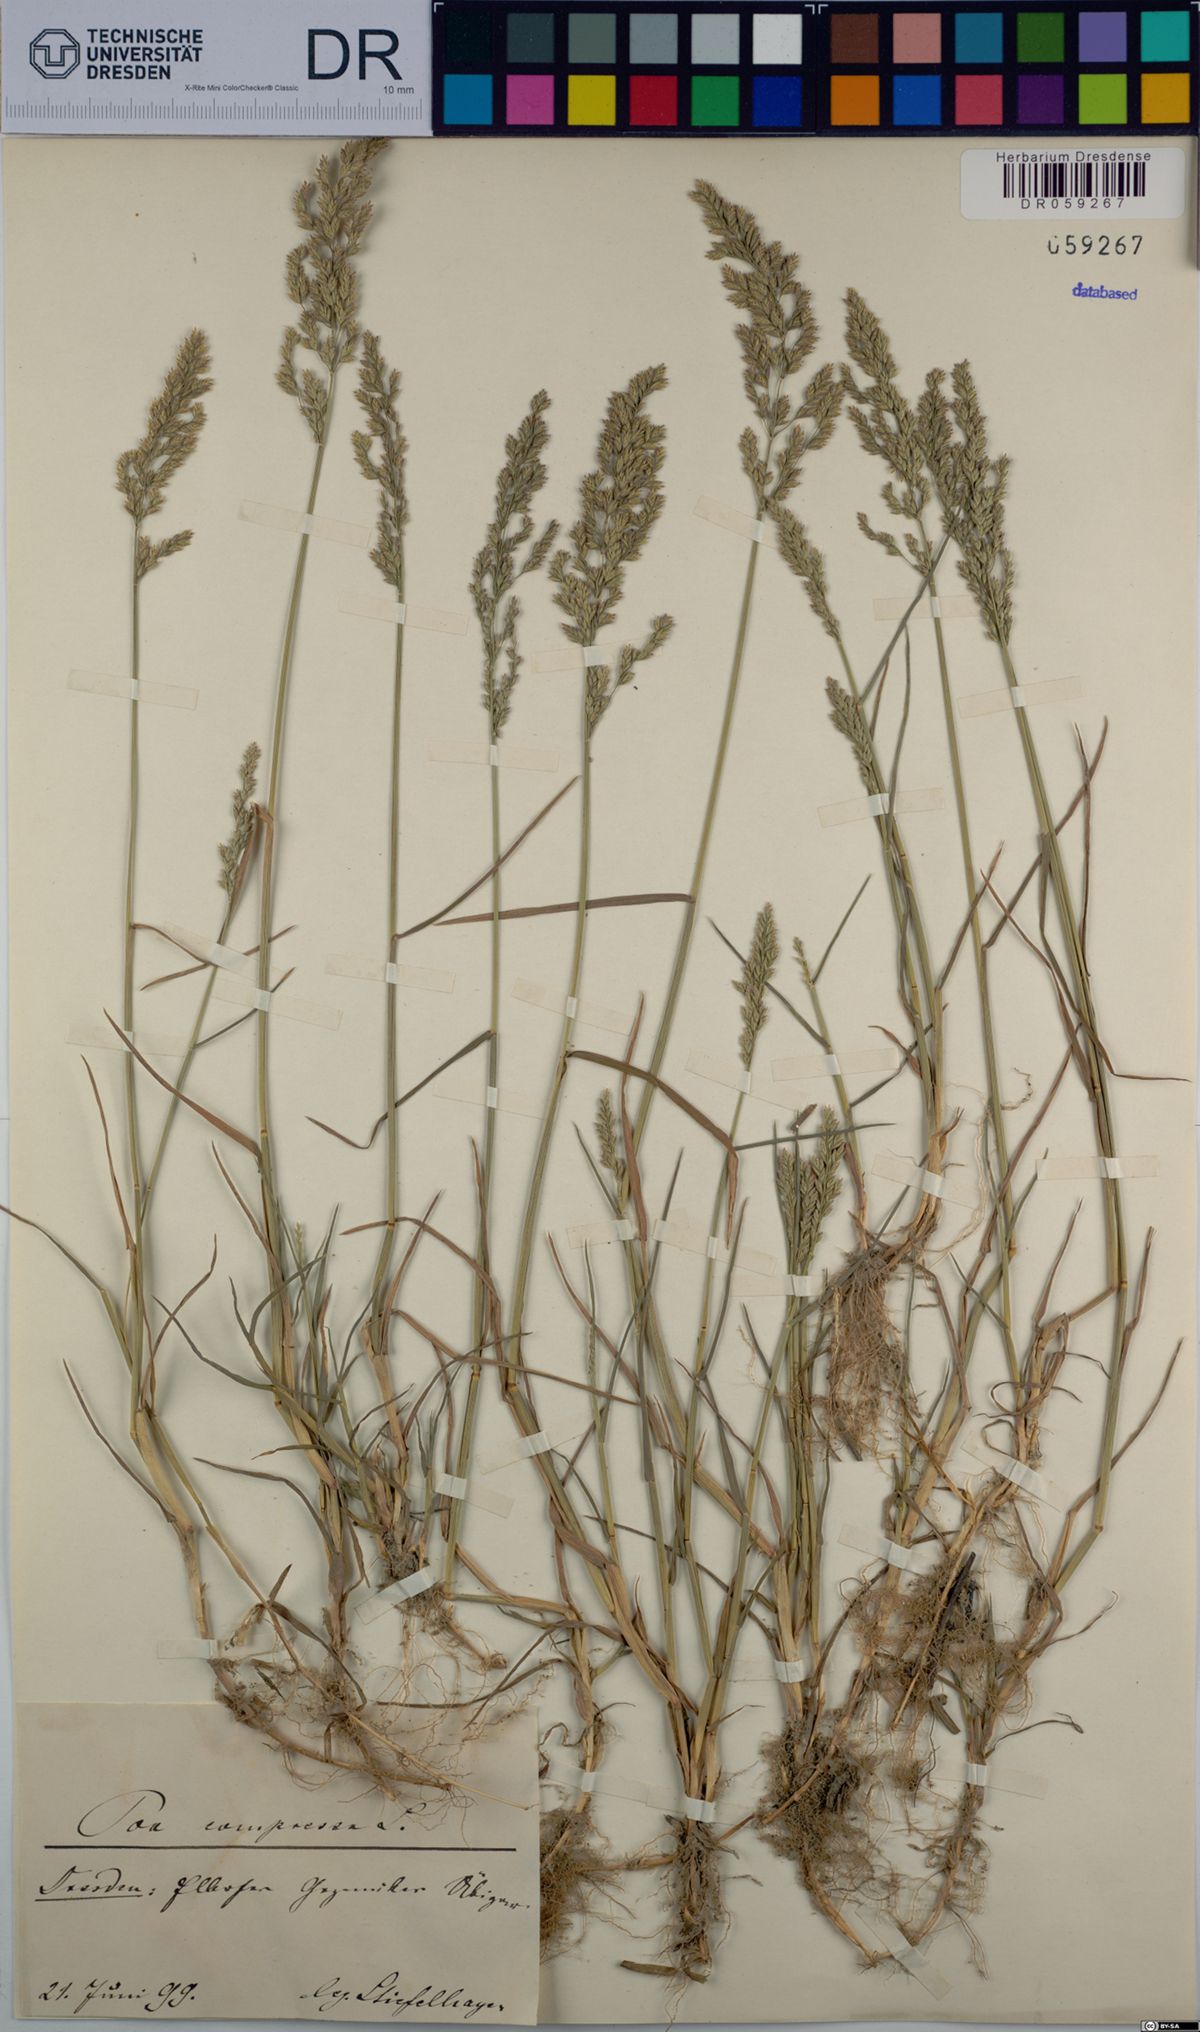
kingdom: Plantae
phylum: Tracheophyta
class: Liliopsida
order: Poales
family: Poaceae
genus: Poa
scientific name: Poa compressa
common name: Canada bluegrass
